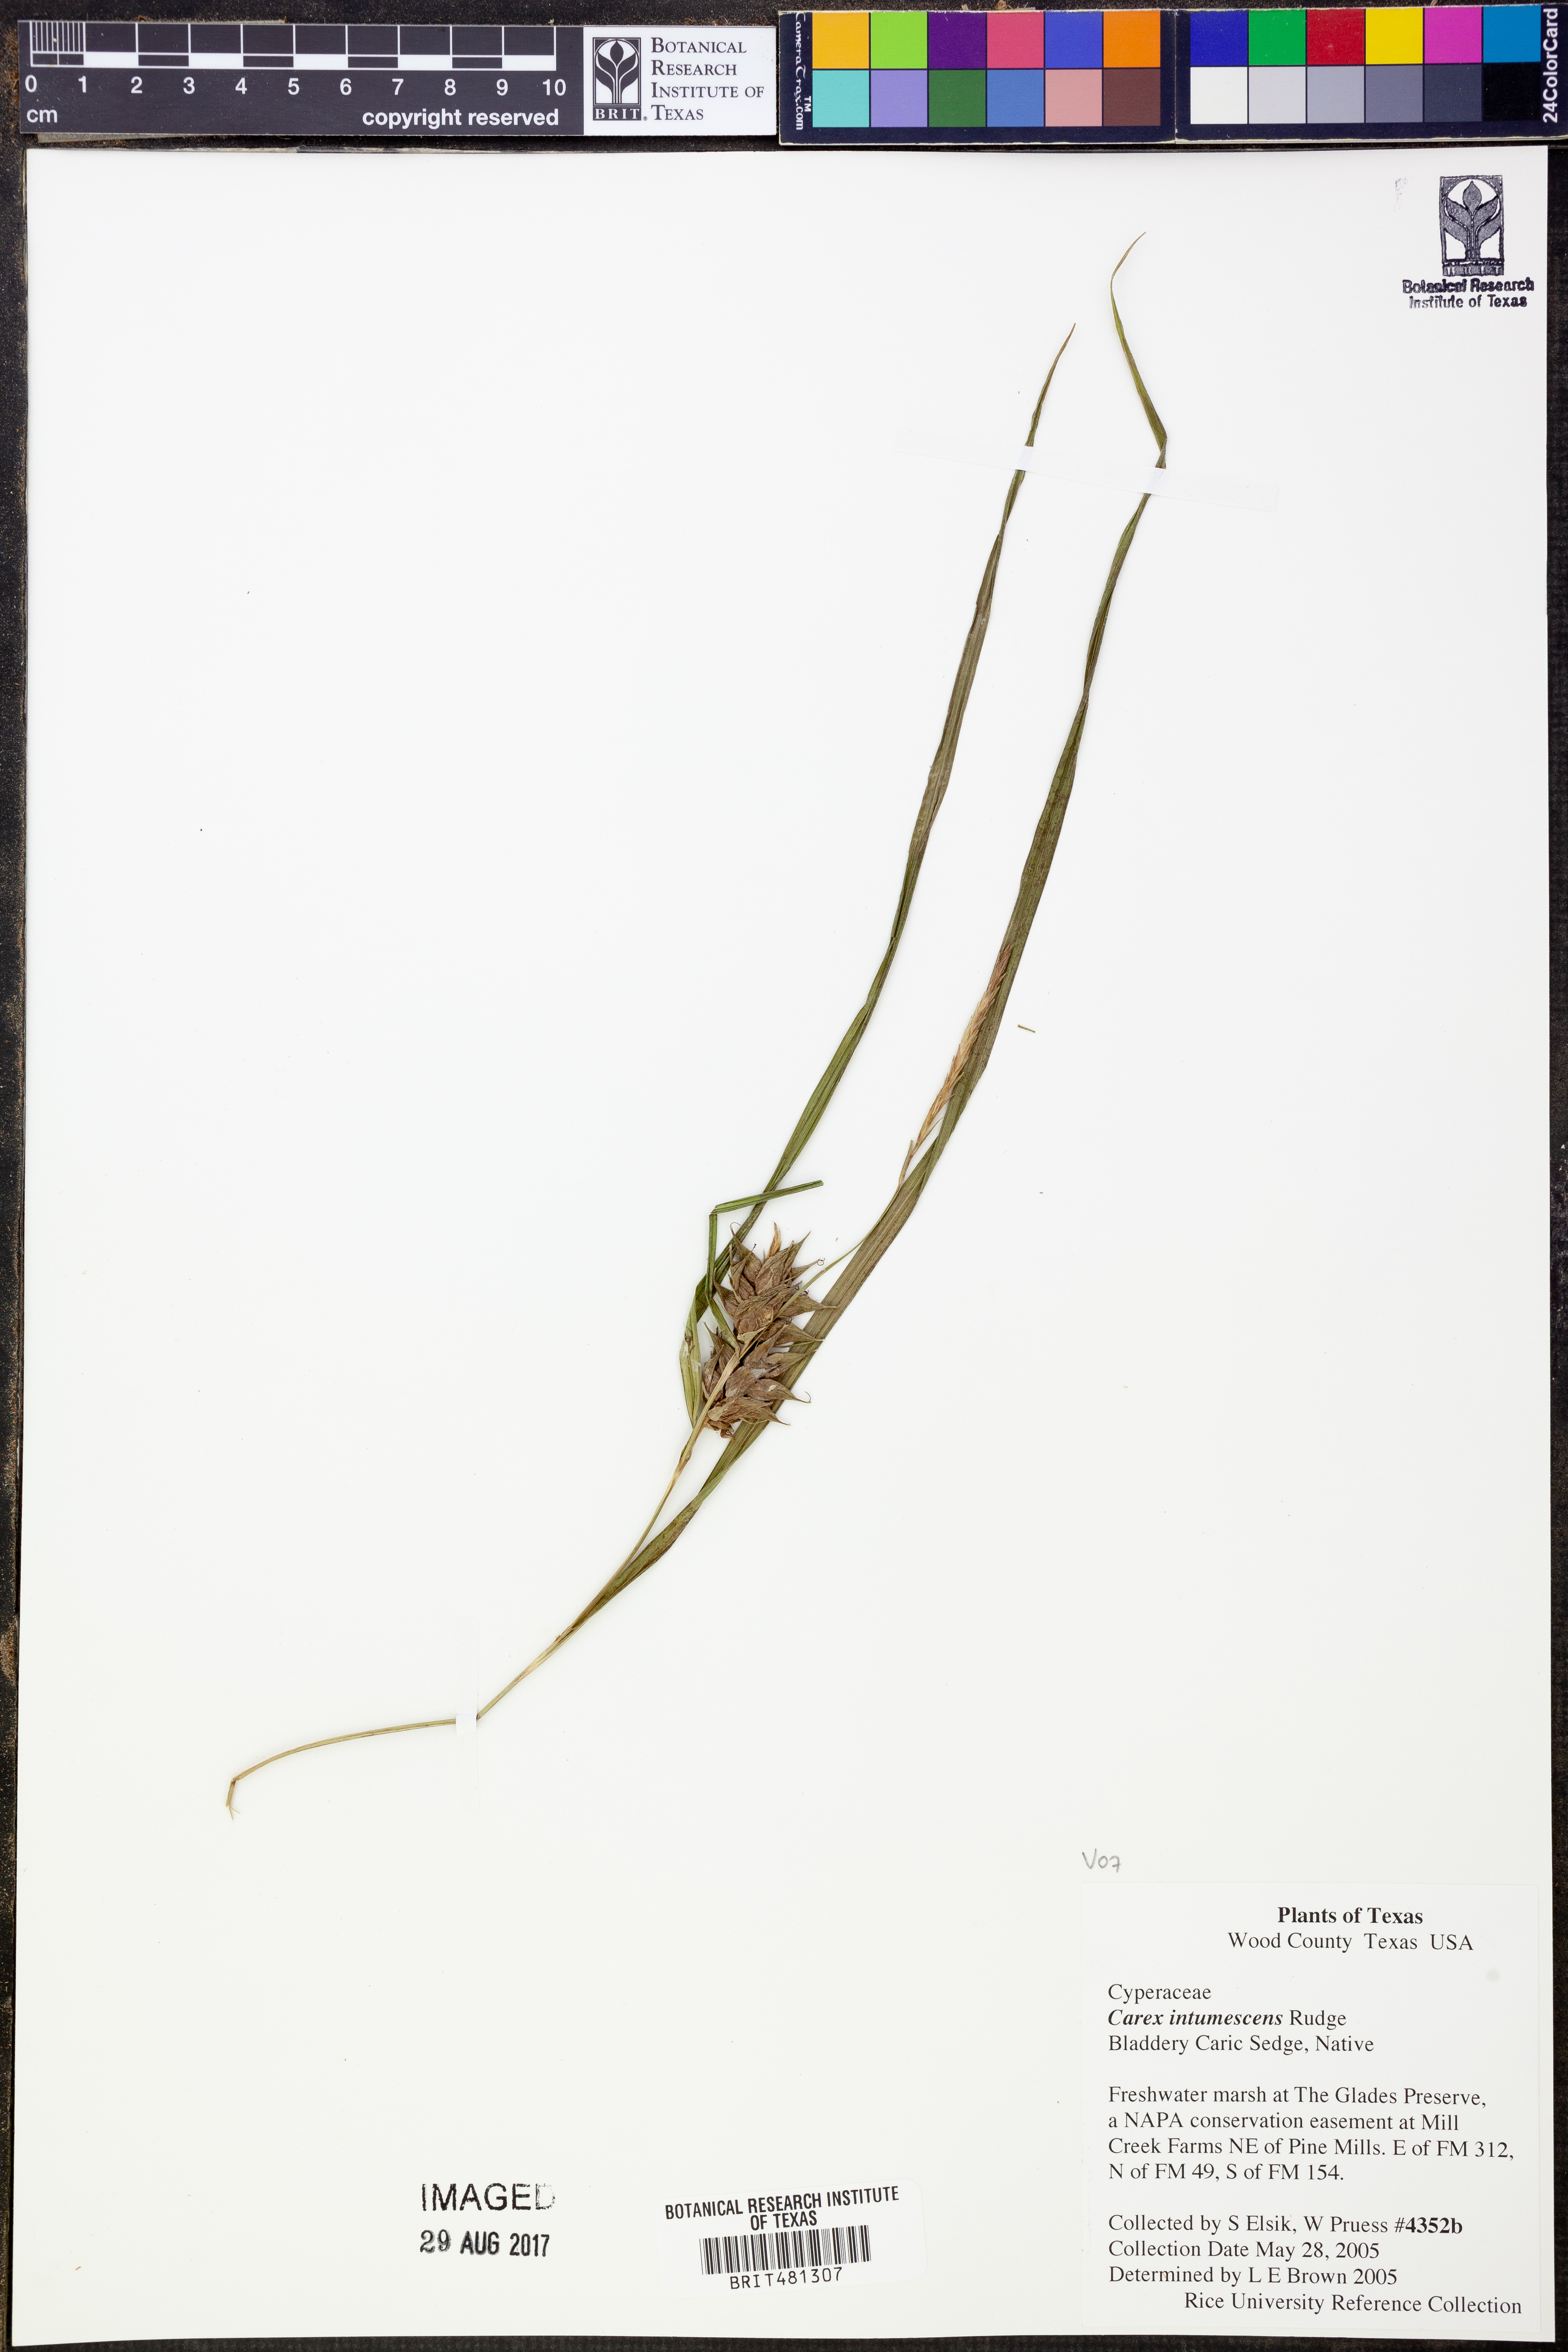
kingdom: Plantae
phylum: Tracheophyta
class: Liliopsida
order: Poales
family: Cyperaceae
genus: Carex
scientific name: Carex intumescens
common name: Greater bladder sedge
